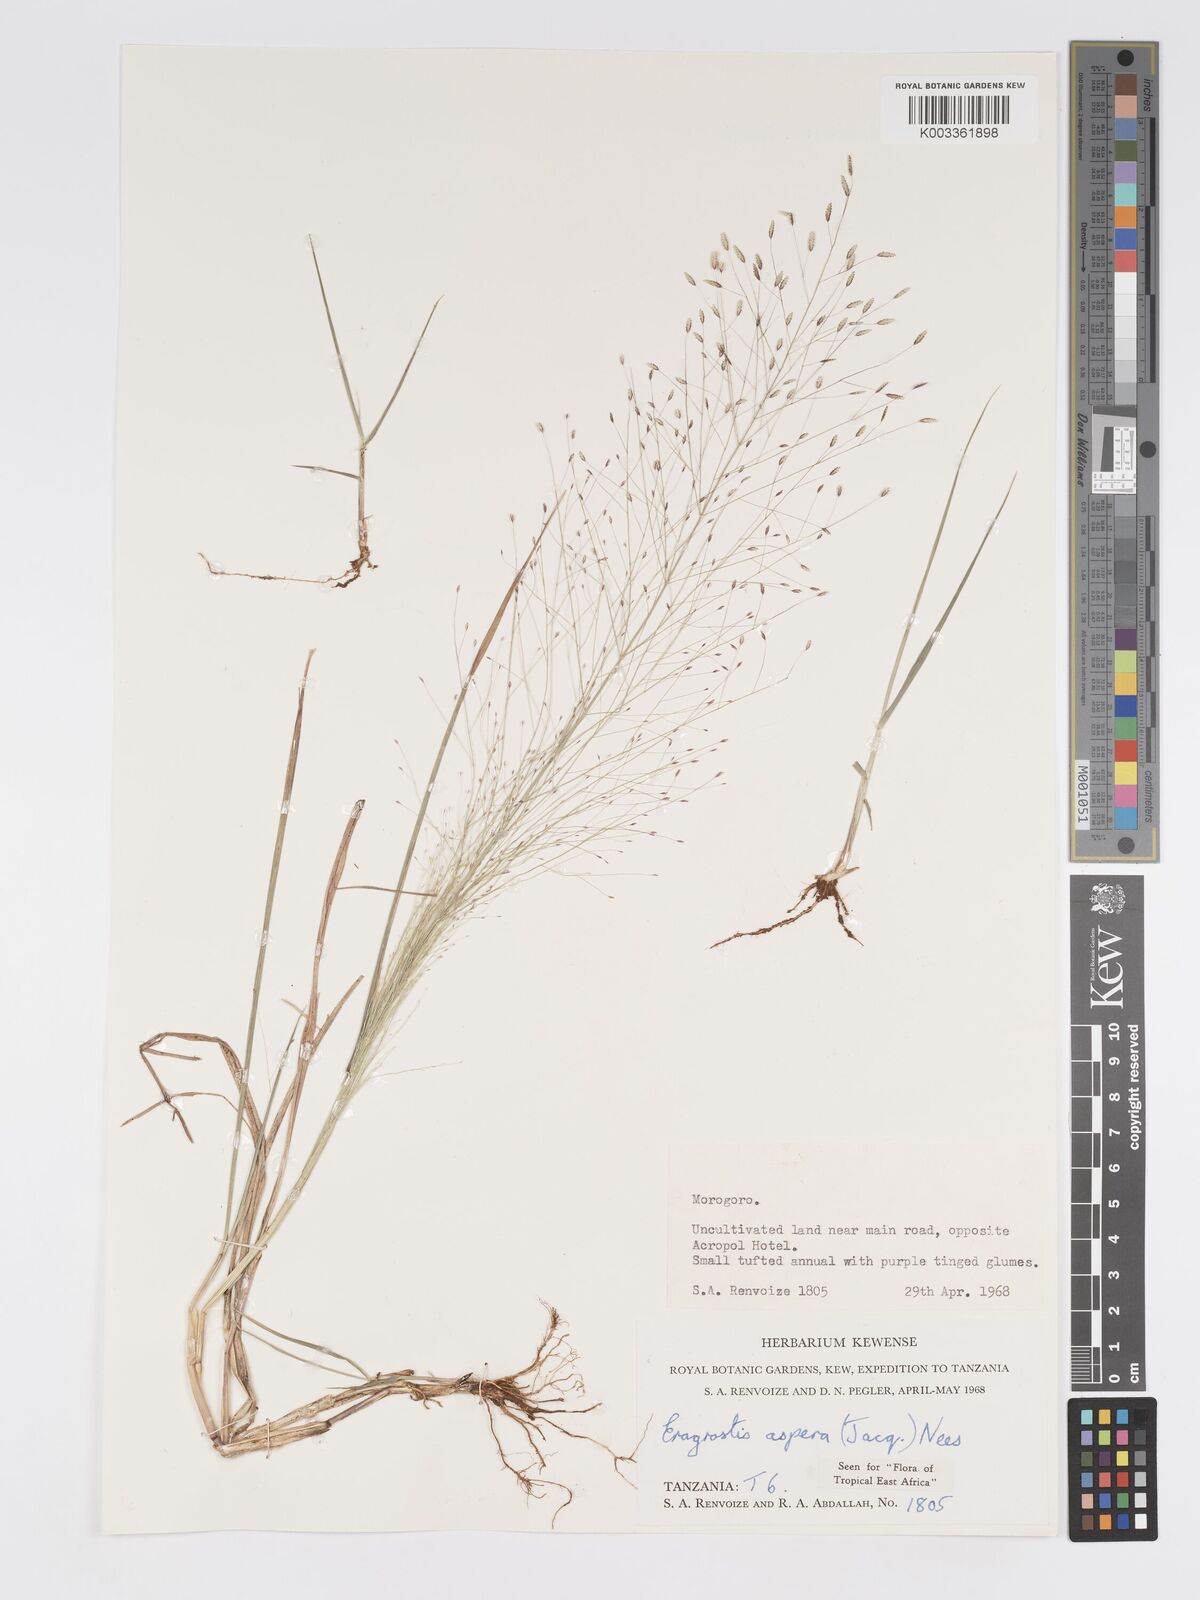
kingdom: Plantae
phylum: Tracheophyta
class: Liliopsida
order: Poales
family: Poaceae
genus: Eragrostis
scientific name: Eragrostis aspera
